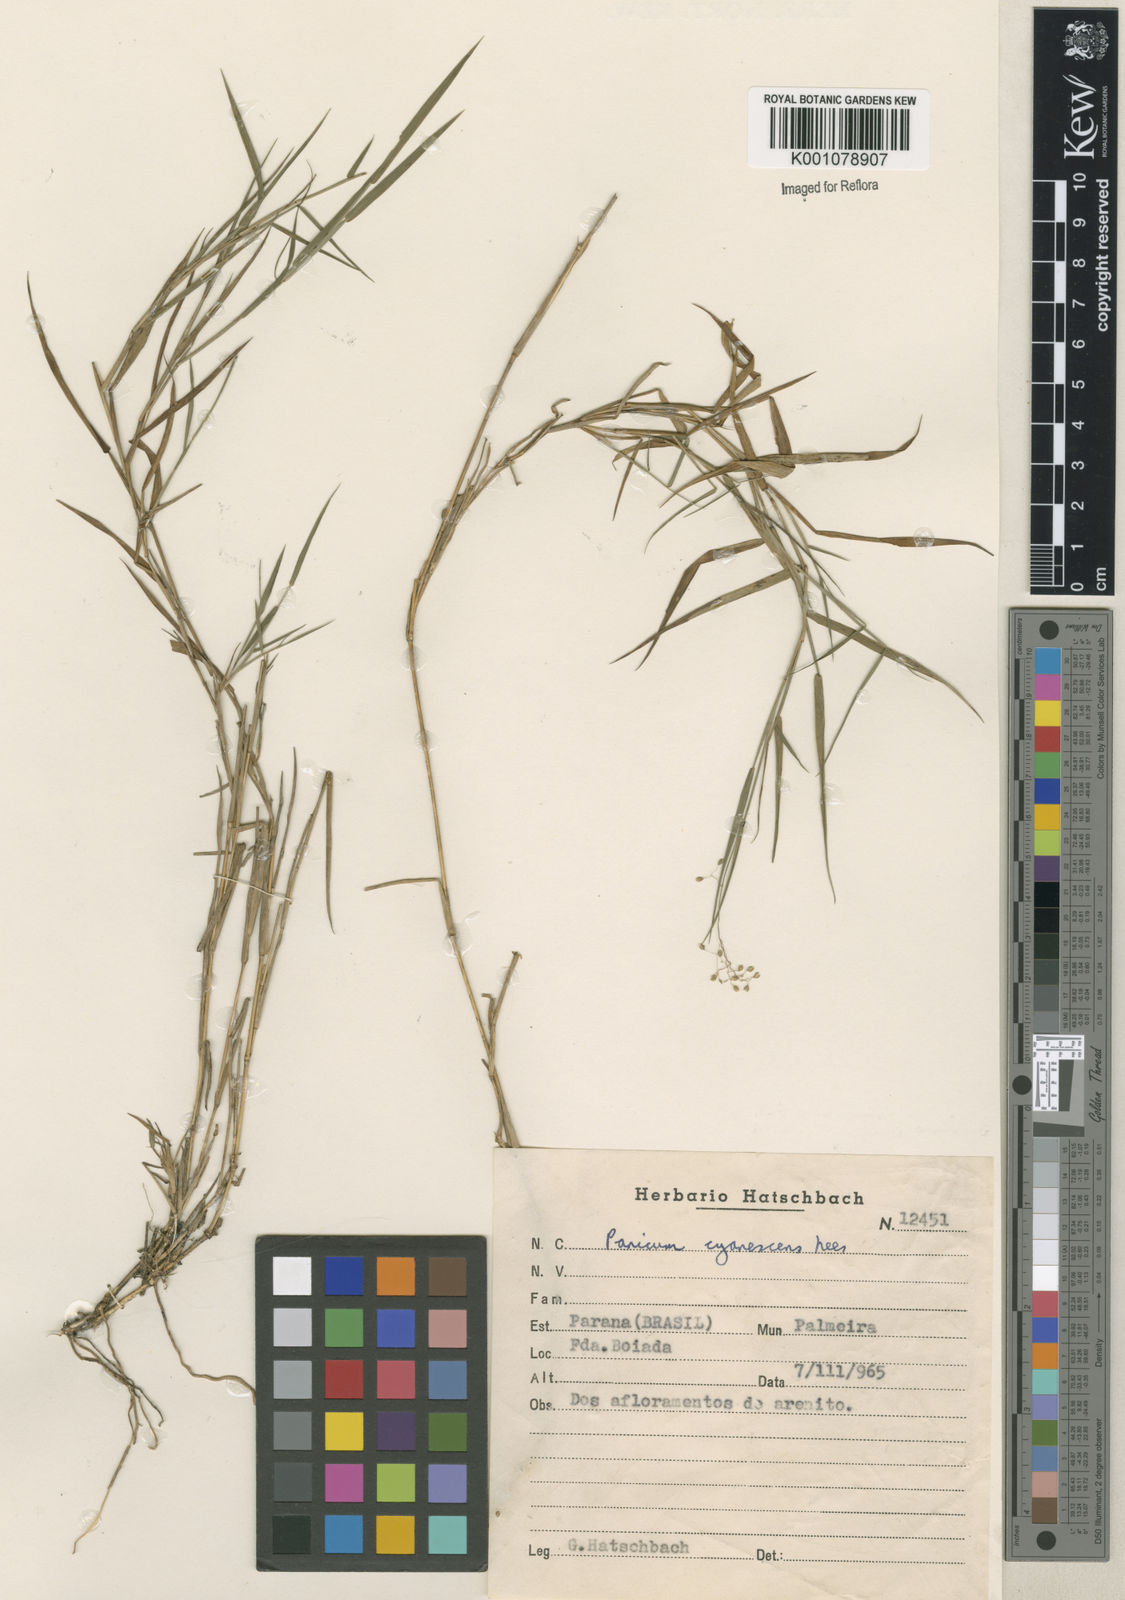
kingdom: Plantae
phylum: Tracheophyta
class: Liliopsida
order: Poales
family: Poaceae
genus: Trichanthecium
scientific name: Trichanthecium cyanescens
